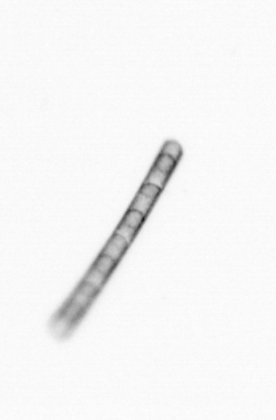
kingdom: Chromista
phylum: Ochrophyta
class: Bacillariophyceae
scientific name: Bacillariophyceae
